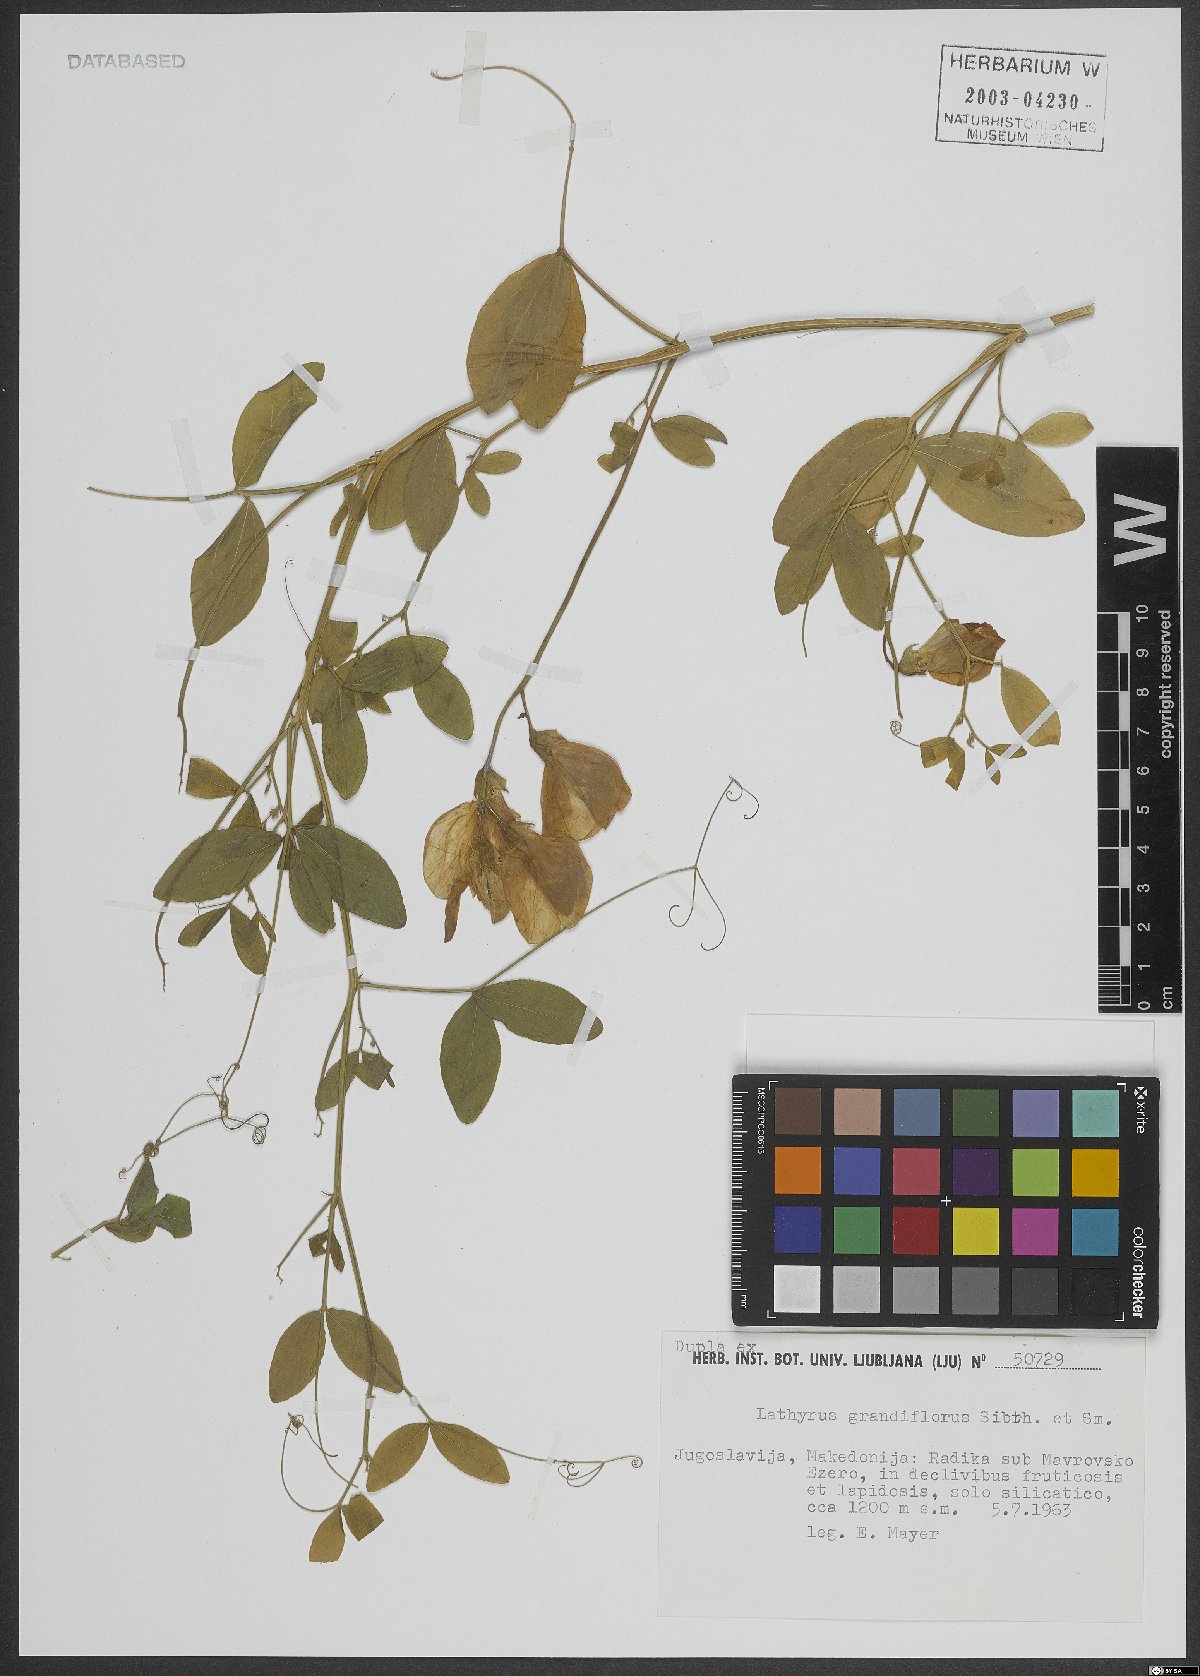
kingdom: Plantae
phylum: Tracheophyta
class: Magnoliopsida
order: Fabales
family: Fabaceae
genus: Lathyrus
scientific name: Lathyrus grandiflorus
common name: Two-flowered everlasting-pea
